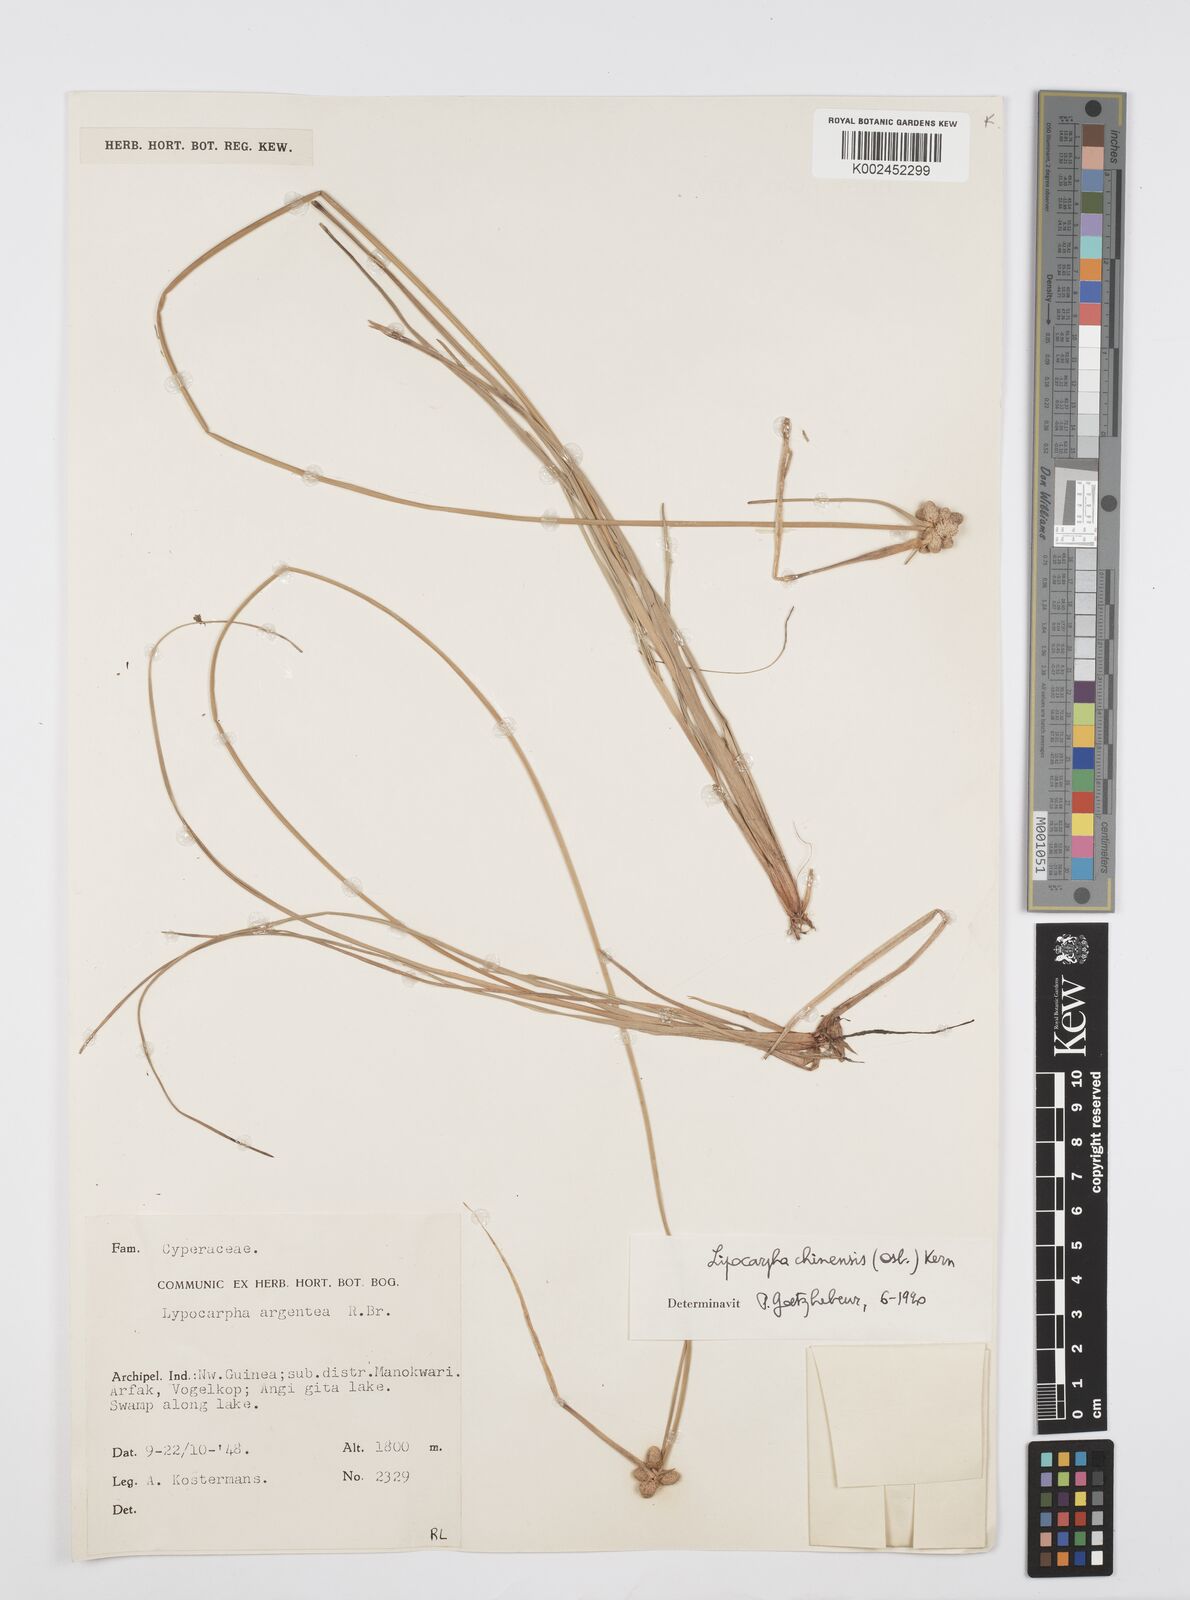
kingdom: Plantae
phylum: Tracheophyta
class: Liliopsida
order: Poales
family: Cyperaceae
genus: Cyperus
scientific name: Cyperus albescens
